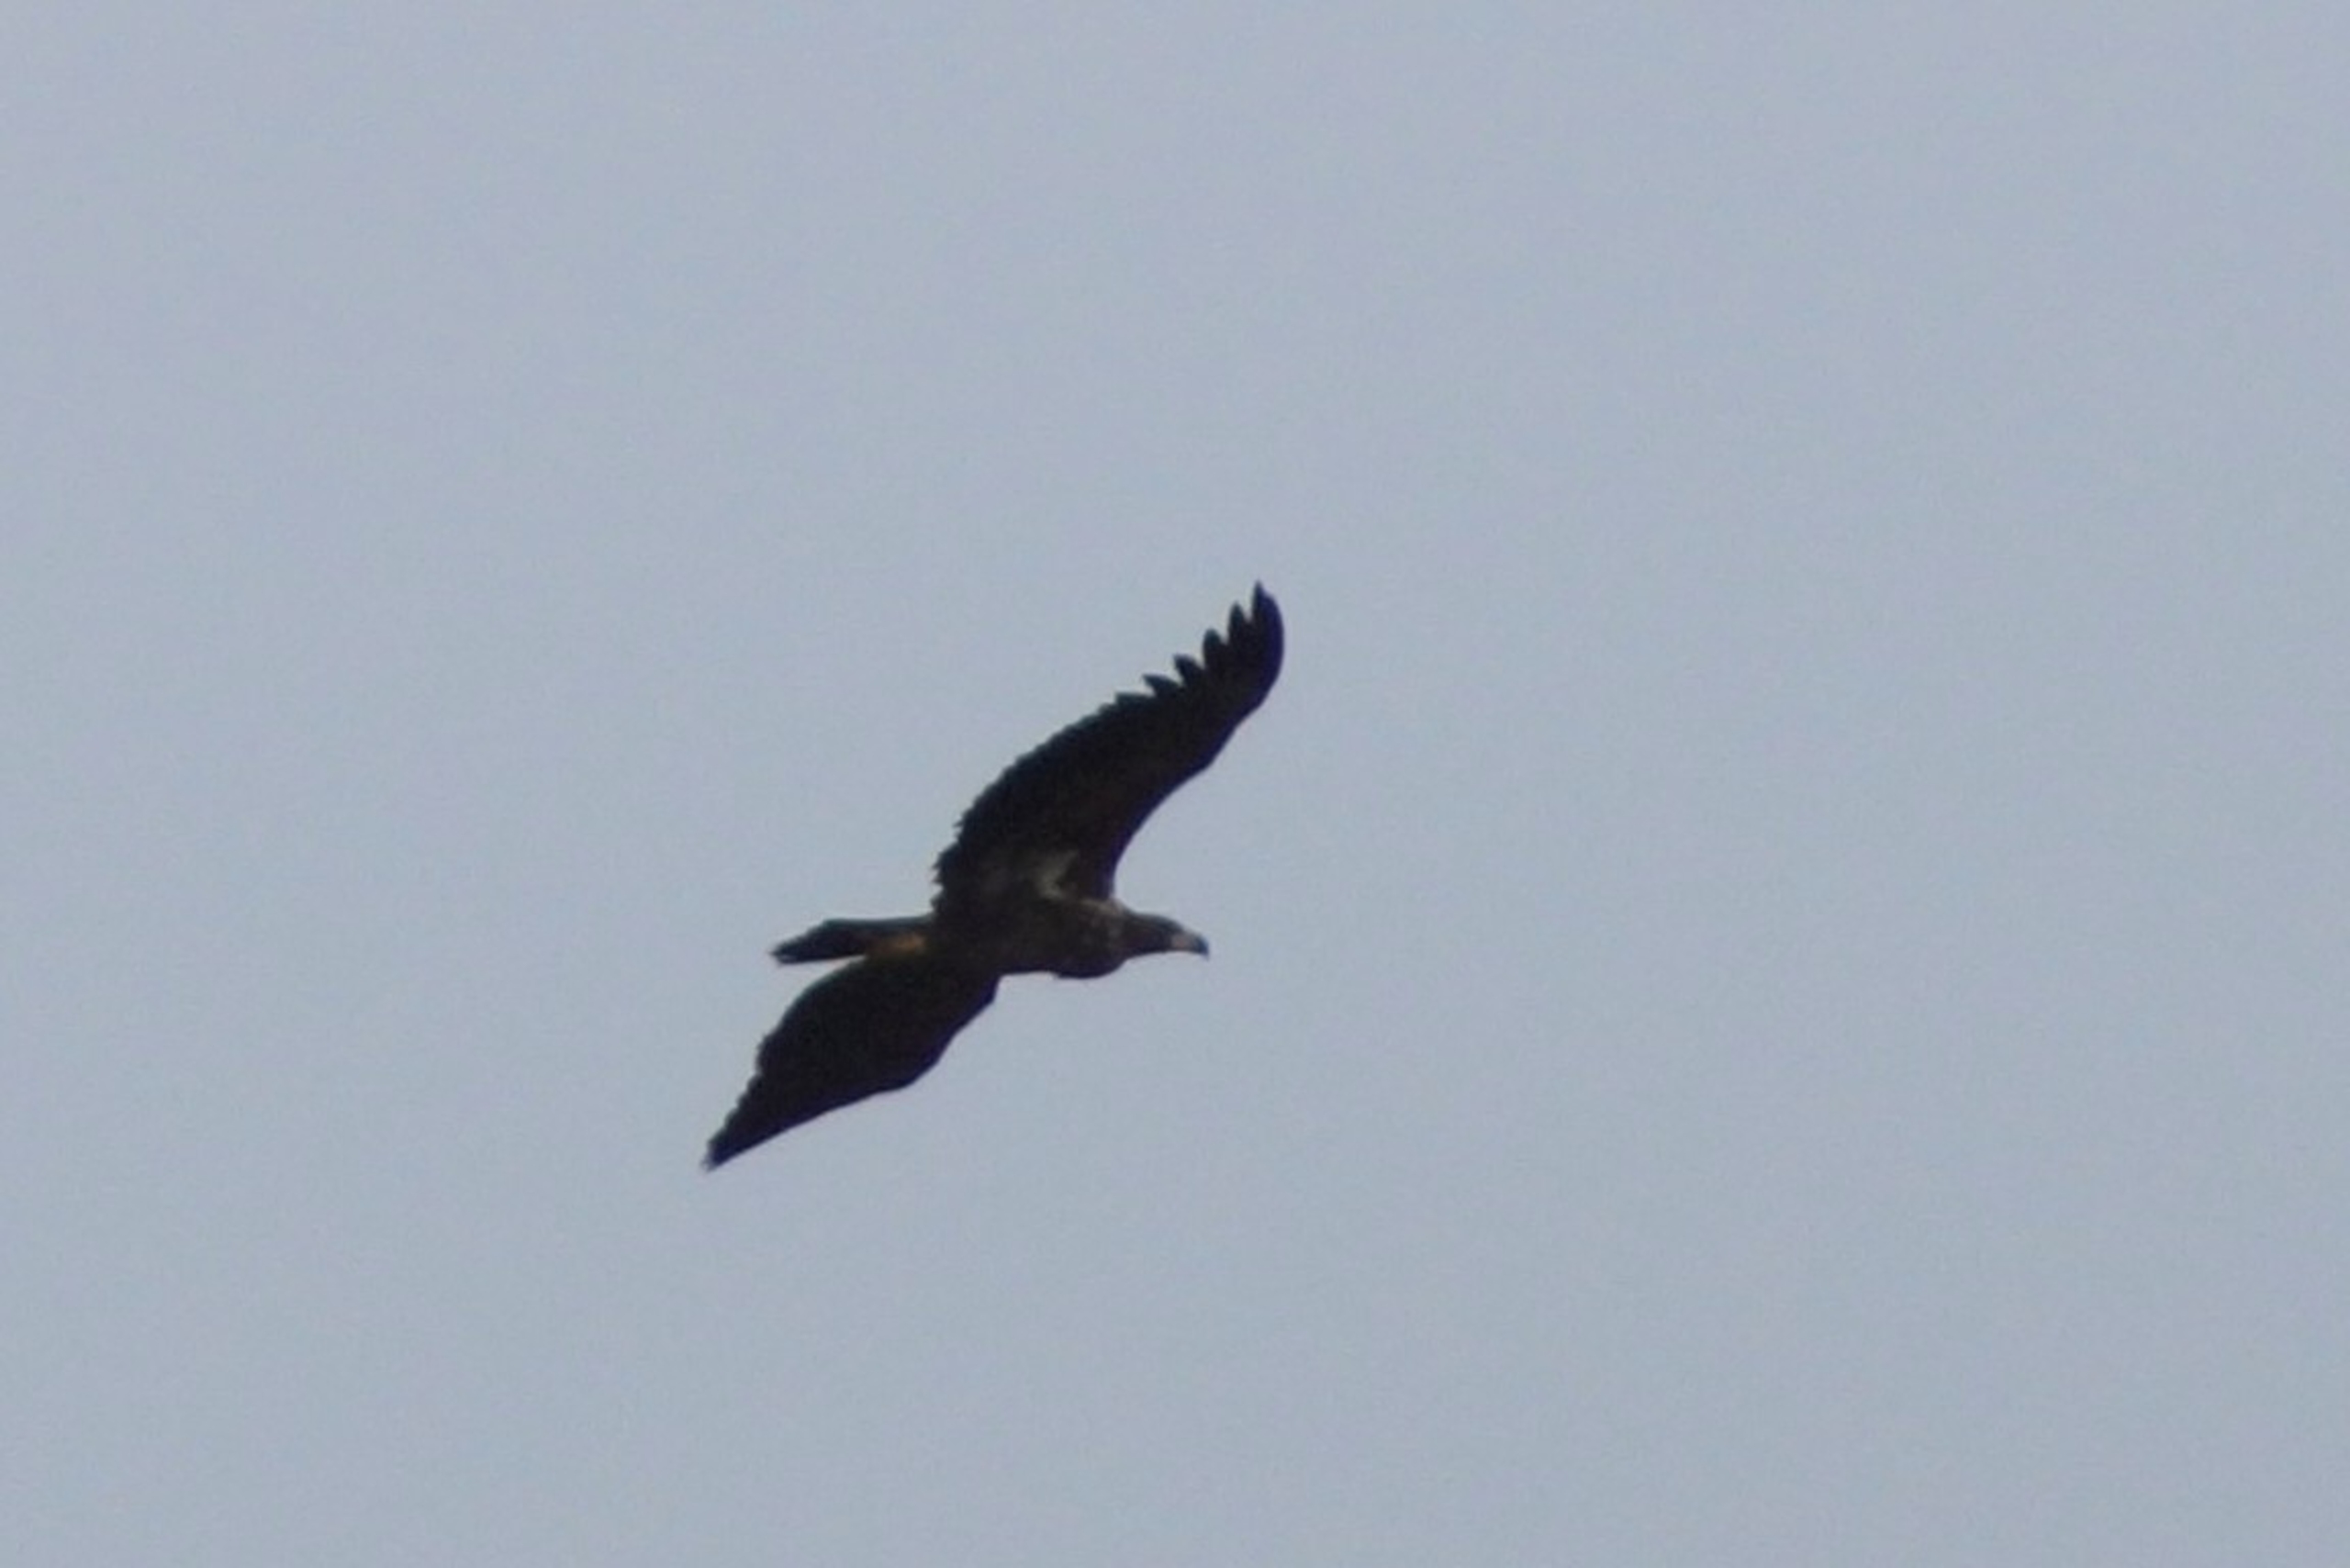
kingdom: Animalia
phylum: Chordata
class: Aves
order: Accipitriformes
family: Accipitridae
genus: Haliaeetus
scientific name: Haliaeetus albicilla
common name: Havørn
